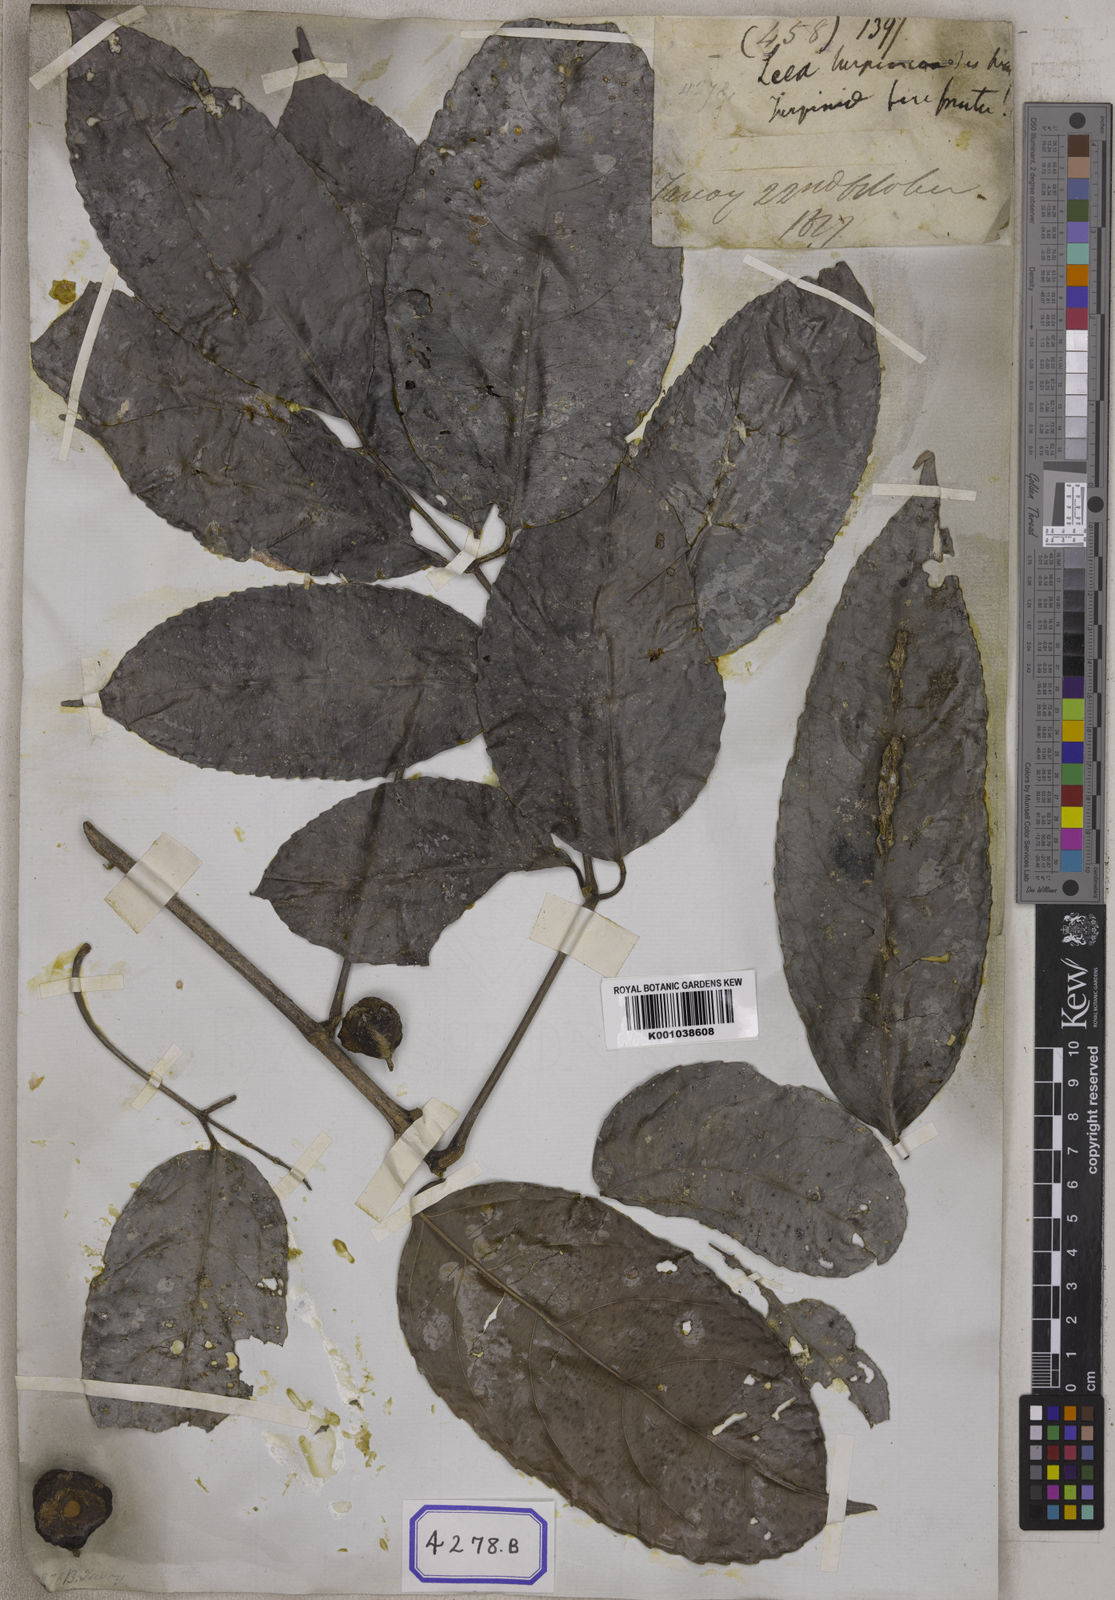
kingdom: Plantae
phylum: Tracheophyta
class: Magnoliopsida
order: Crossosomatales
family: Staphyleaceae
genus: Dalrympelea
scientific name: Dalrympelea pomifera
